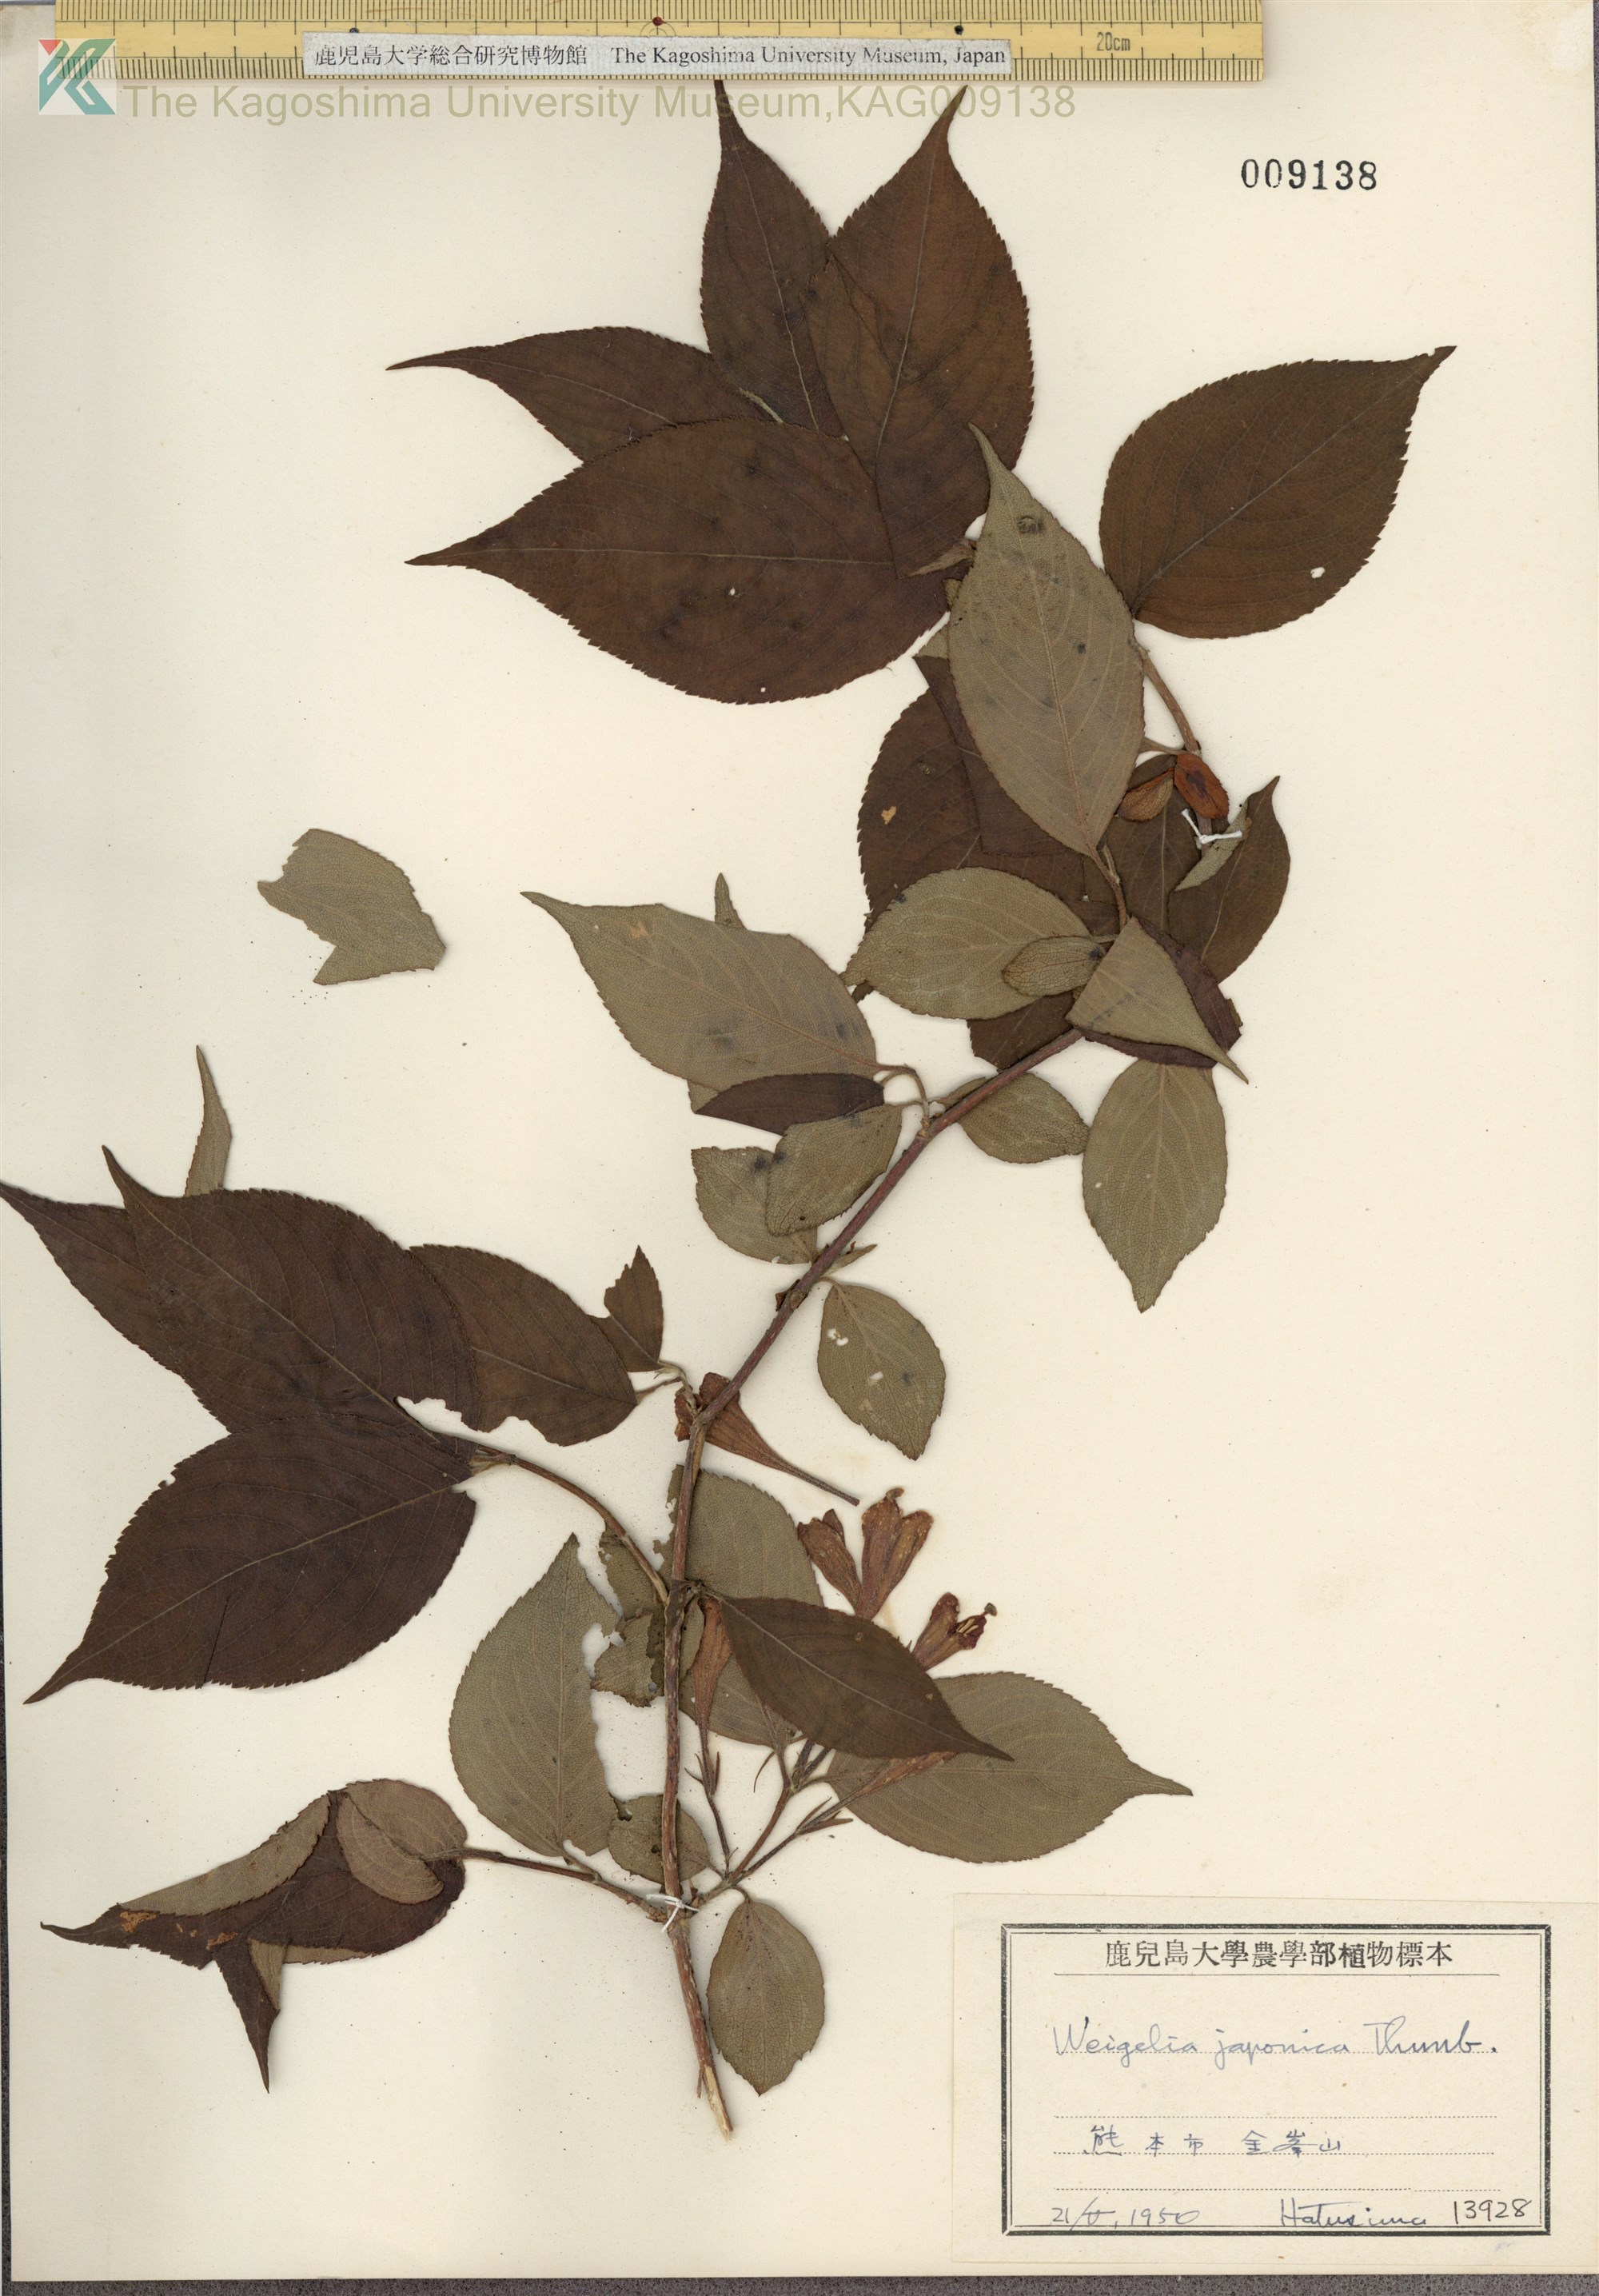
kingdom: Plantae
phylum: Tracheophyta
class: Magnoliopsida
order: Dipsacales
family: Caprifoliaceae
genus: Weigela
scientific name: Weigela japonica
